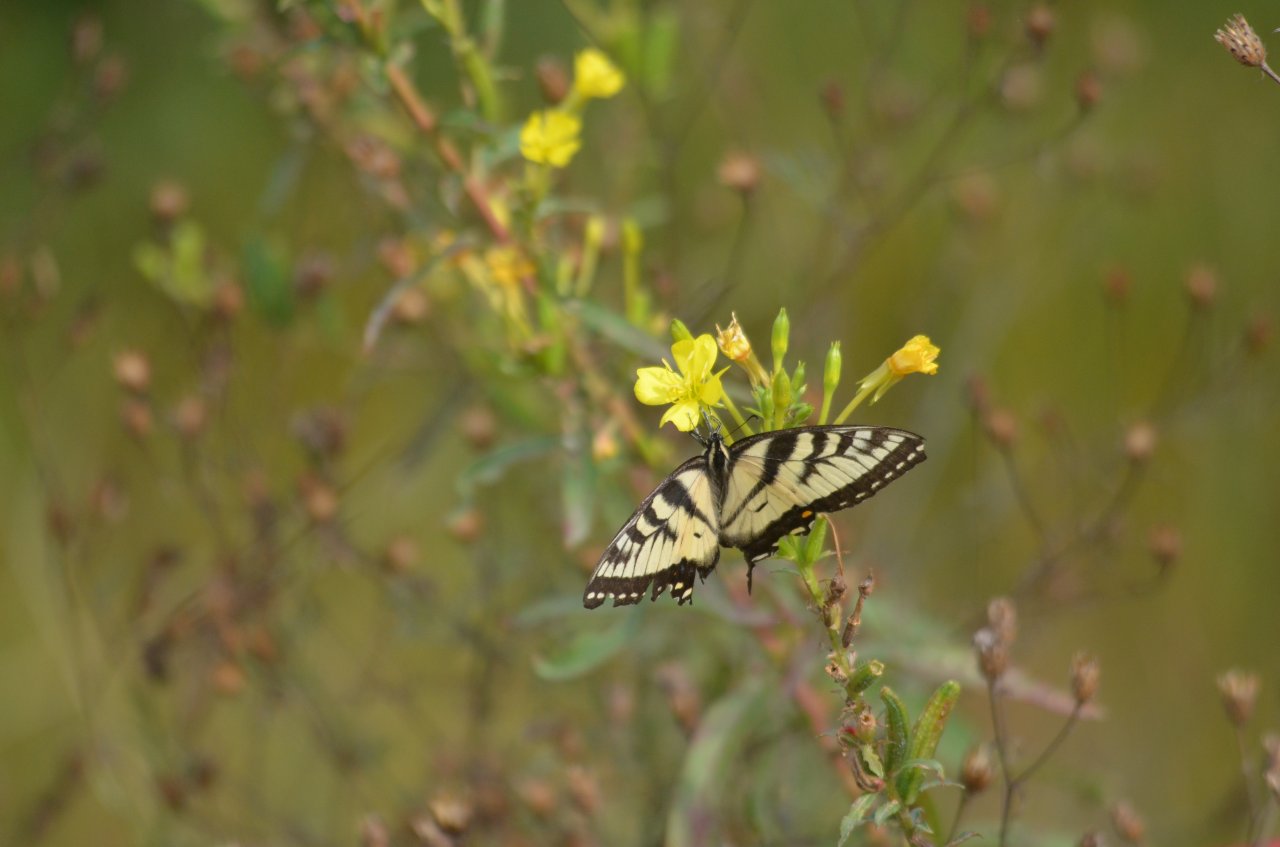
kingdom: Animalia
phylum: Arthropoda
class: Insecta
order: Lepidoptera
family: Papilionidae
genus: Papilio
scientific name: Papilio
